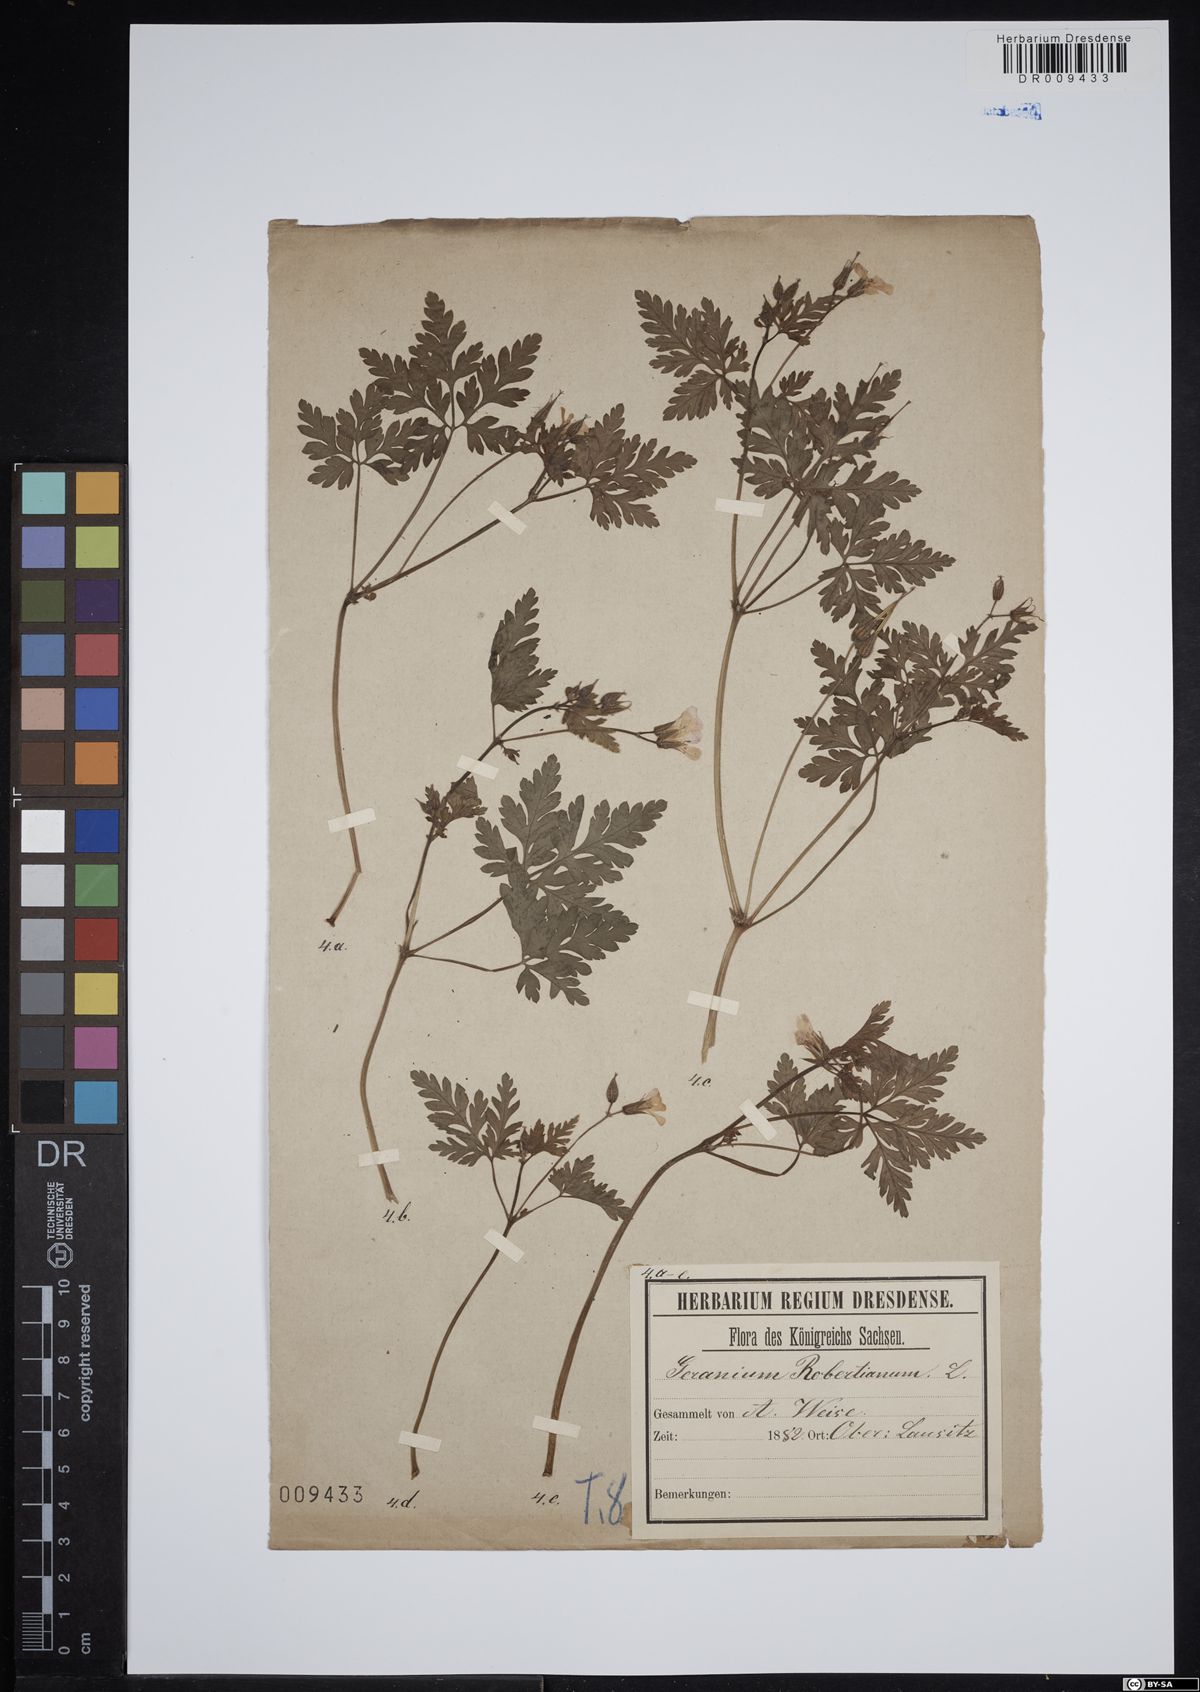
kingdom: Plantae
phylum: Tracheophyta
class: Magnoliopsida
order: Geraniales
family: Geraniaceae
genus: Geranium
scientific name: Geranium robertianum
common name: Herb-robert
